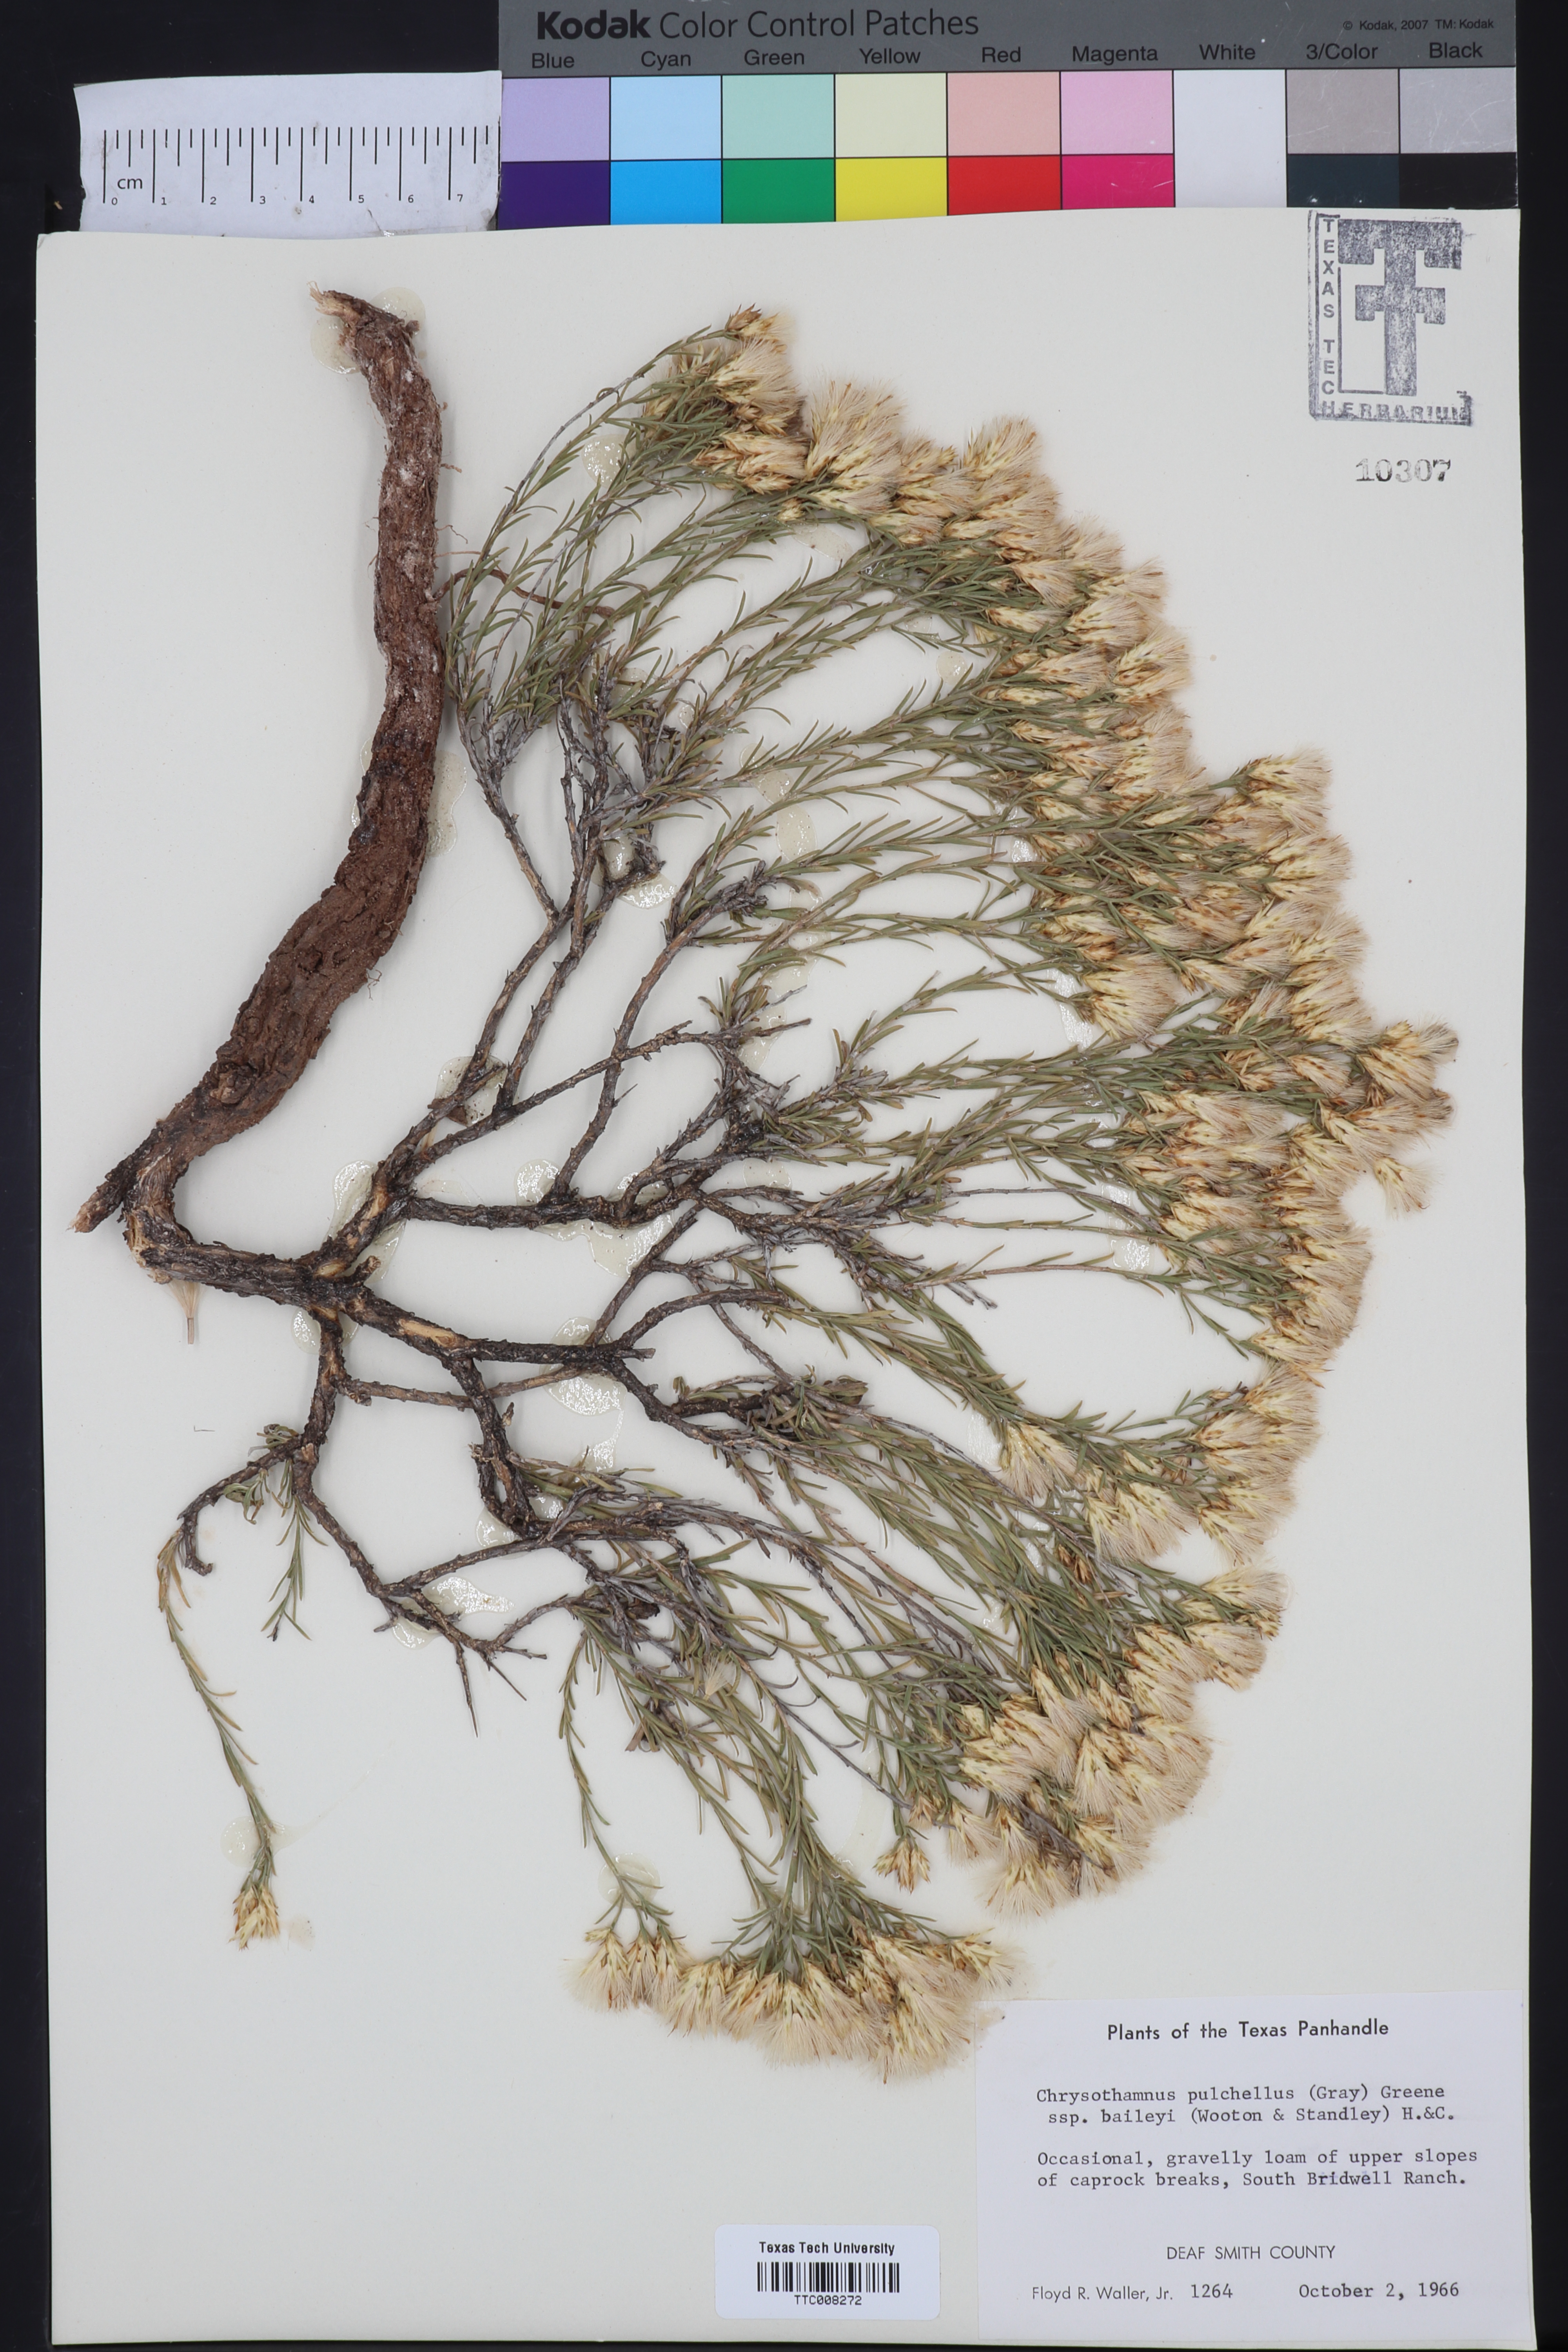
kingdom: Plantae
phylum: Tracheophyta
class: Magnoliopsida
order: Asterales
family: Asteraceae
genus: Lorandersonia
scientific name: Lorandersonia baileyi
